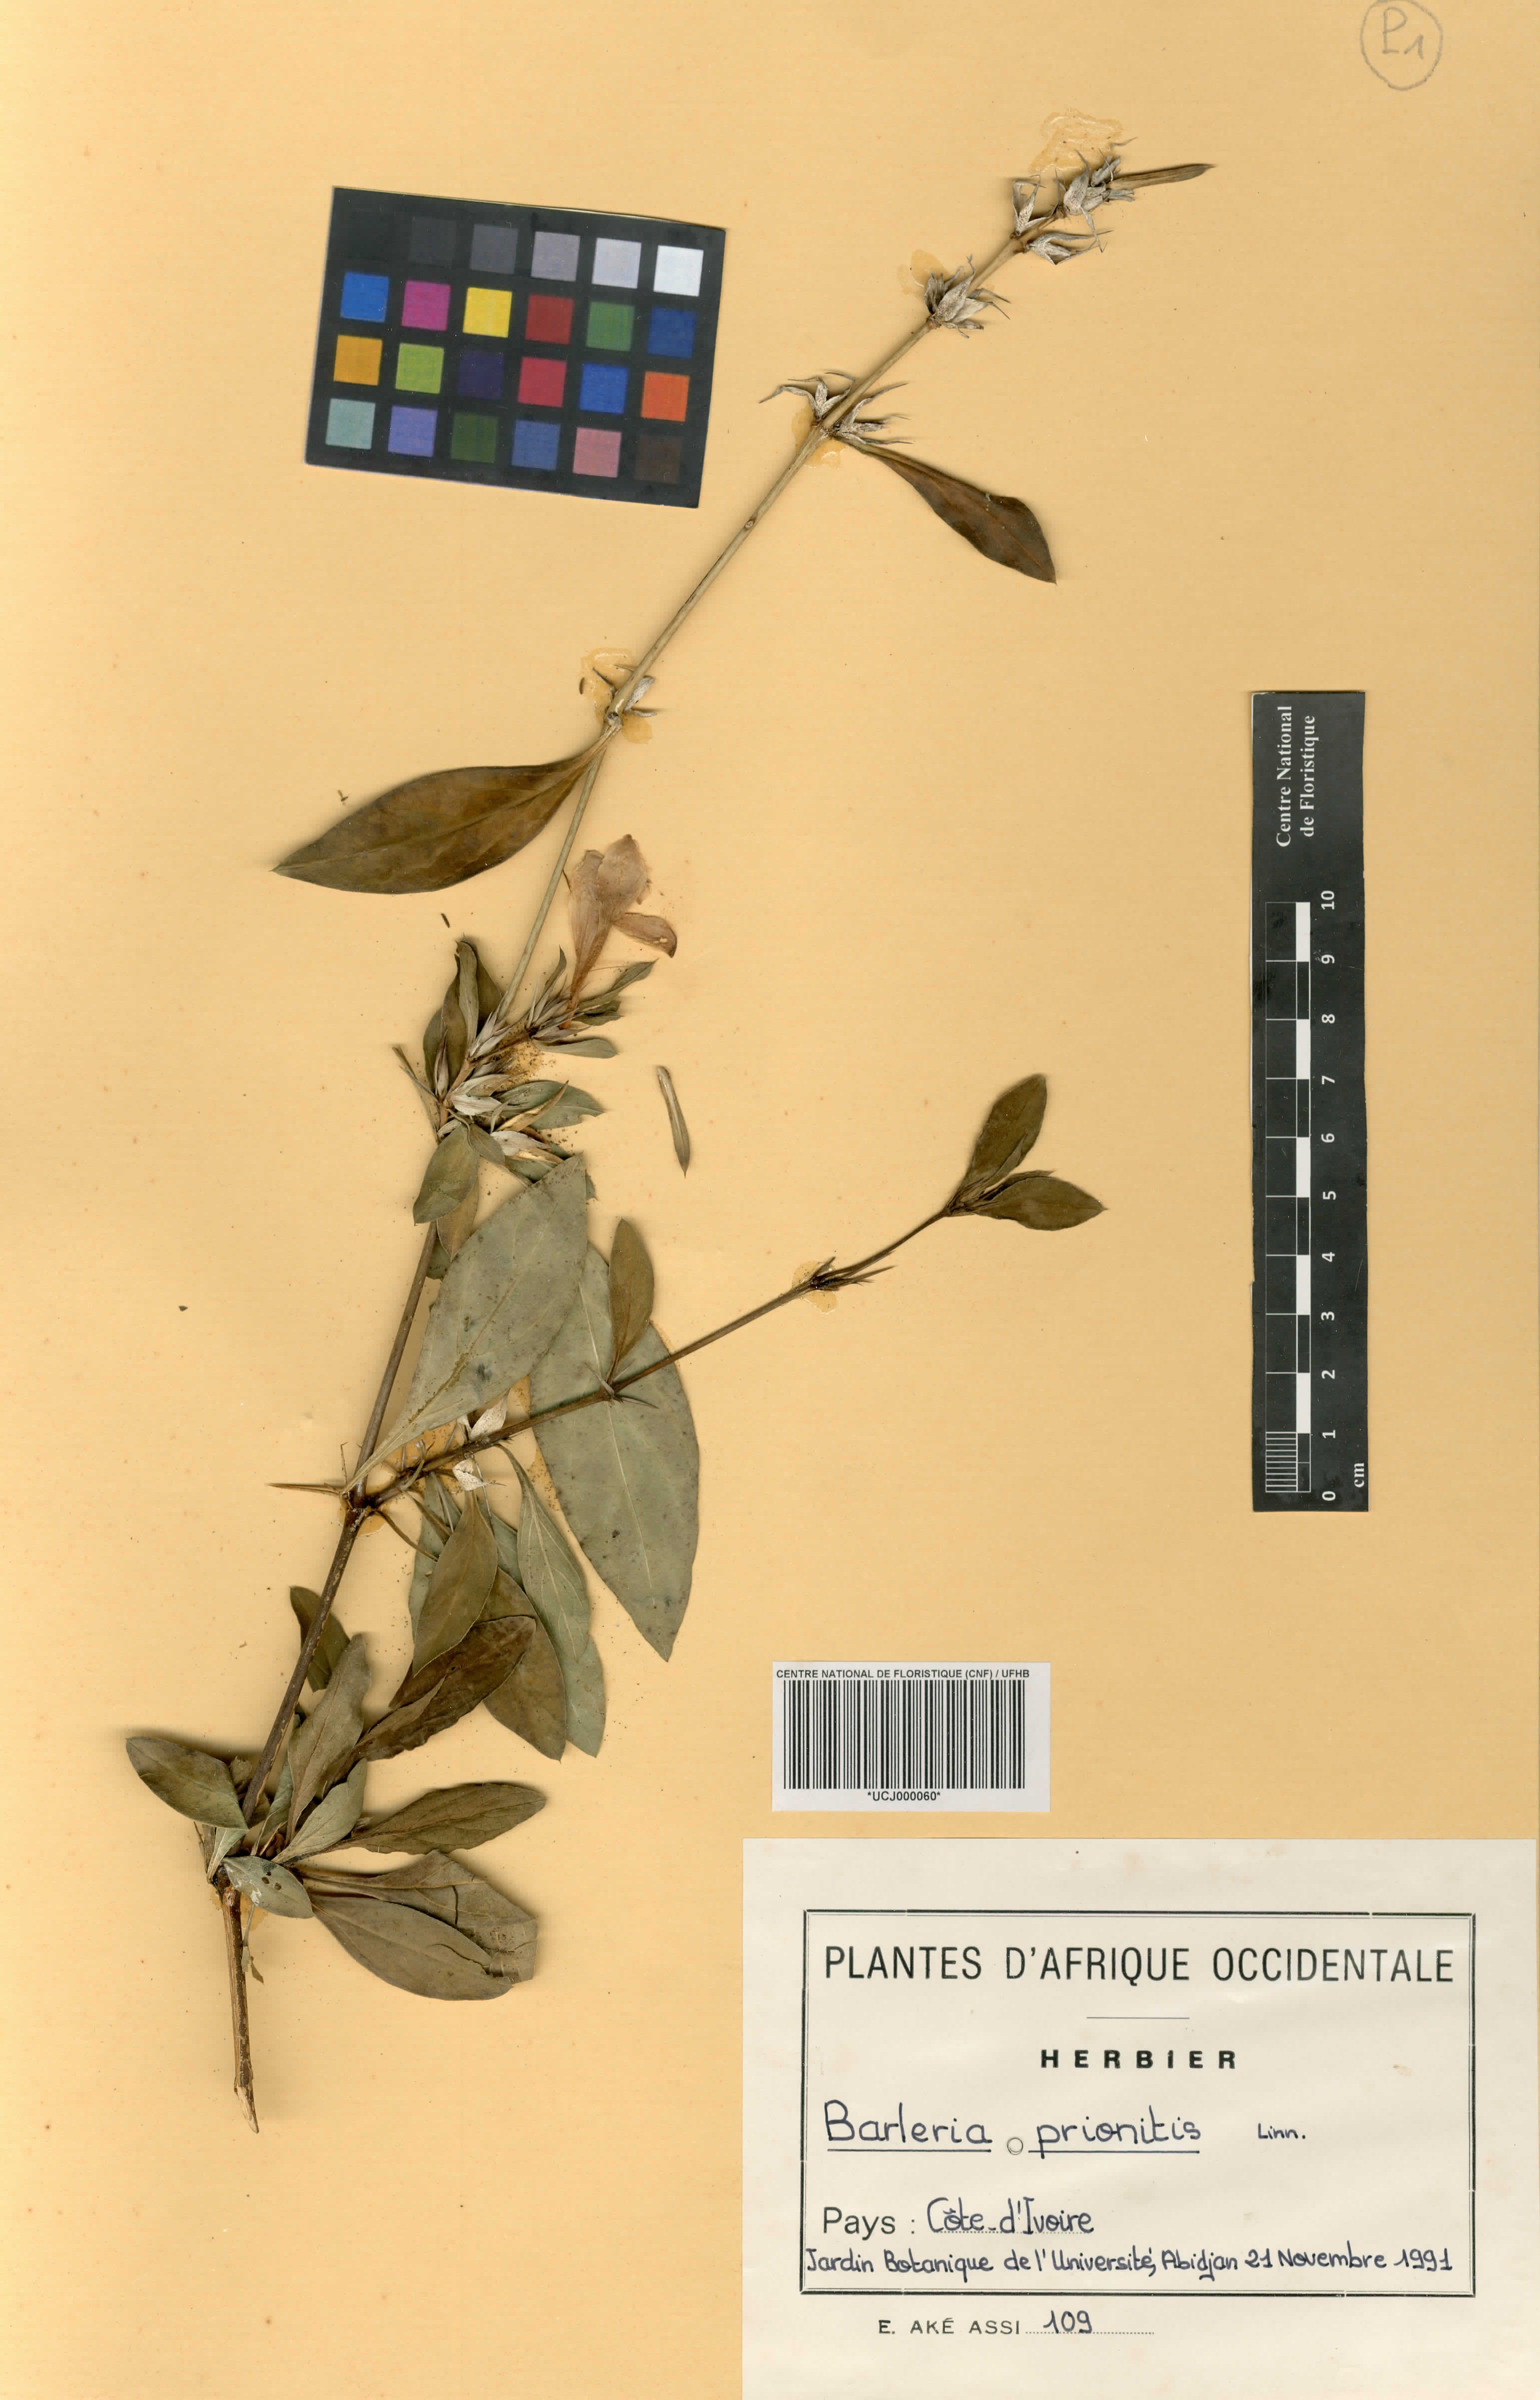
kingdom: Plantae
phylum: Tracheophyta
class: Magnoliopsida
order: Lamiales
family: Acanthaceae
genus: Barleria
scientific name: Barleria prionitis
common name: Barleria
